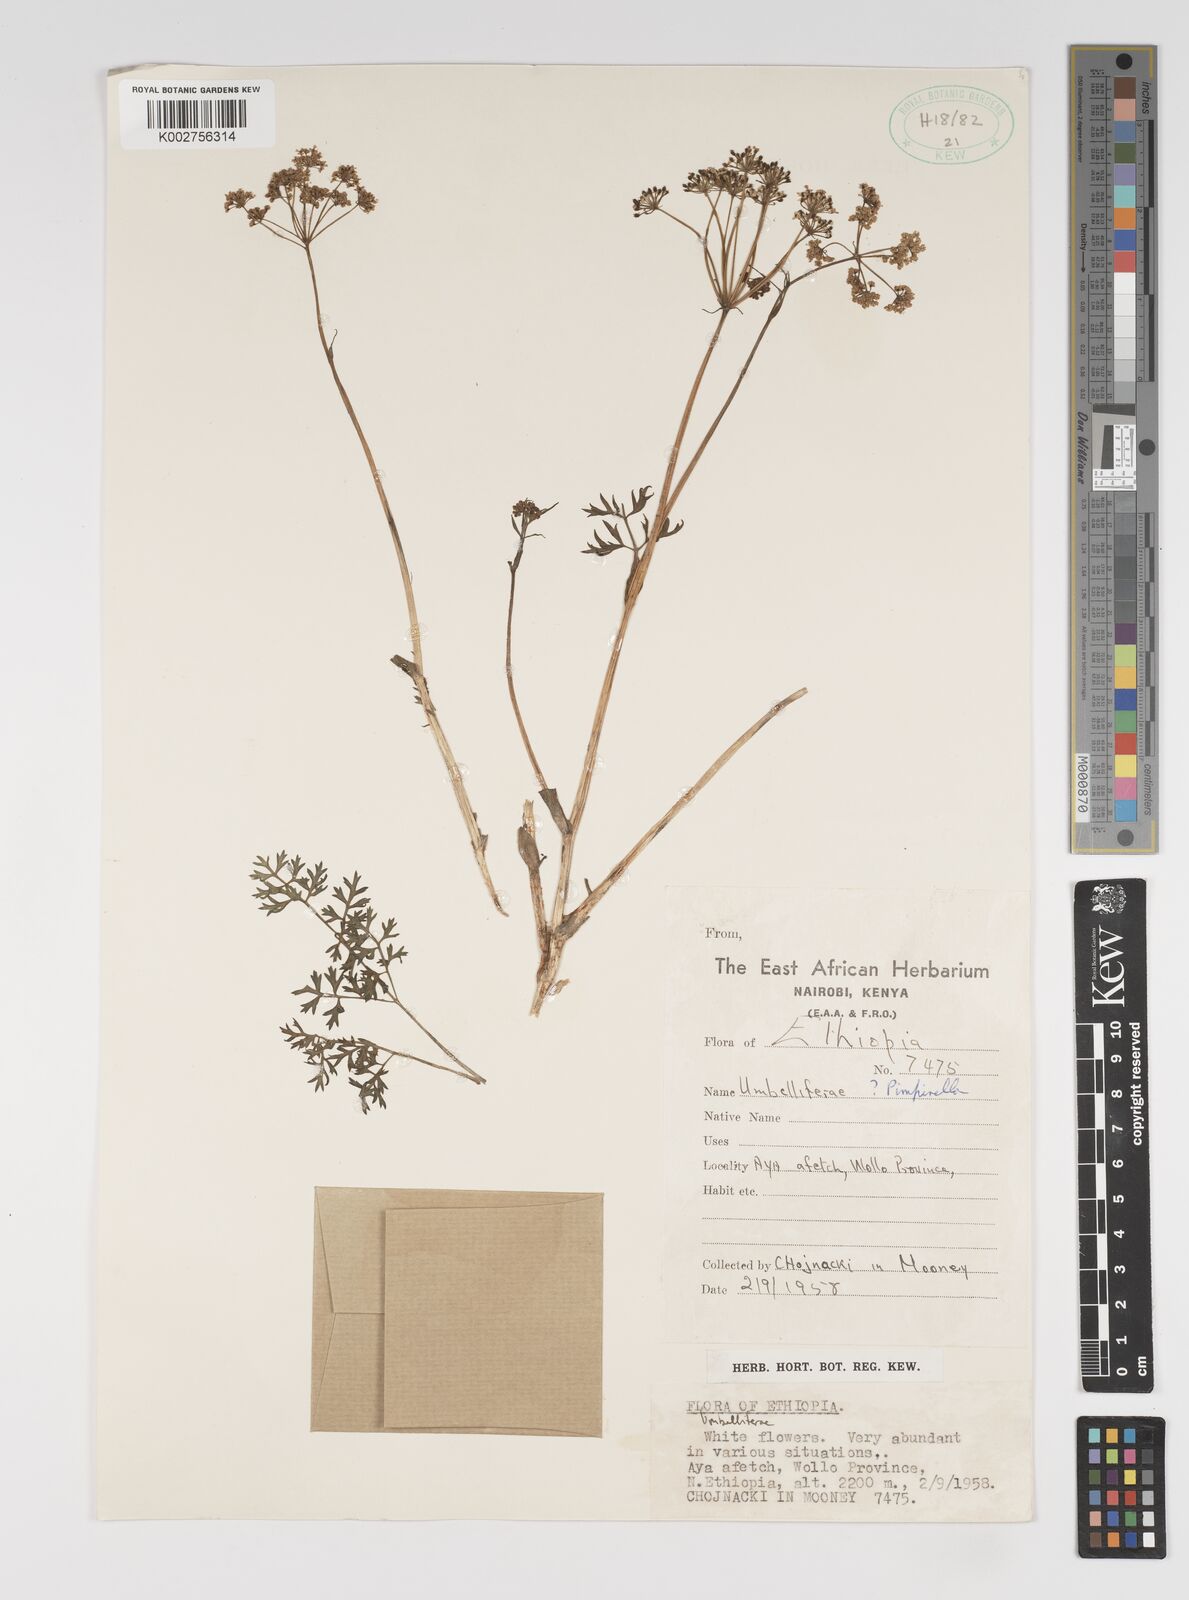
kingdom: Plantae
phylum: Tracheophyta
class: Magnoliopsida
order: Apiales
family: Apiaceae
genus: Pimpinella
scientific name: Pimpinella peregrina
